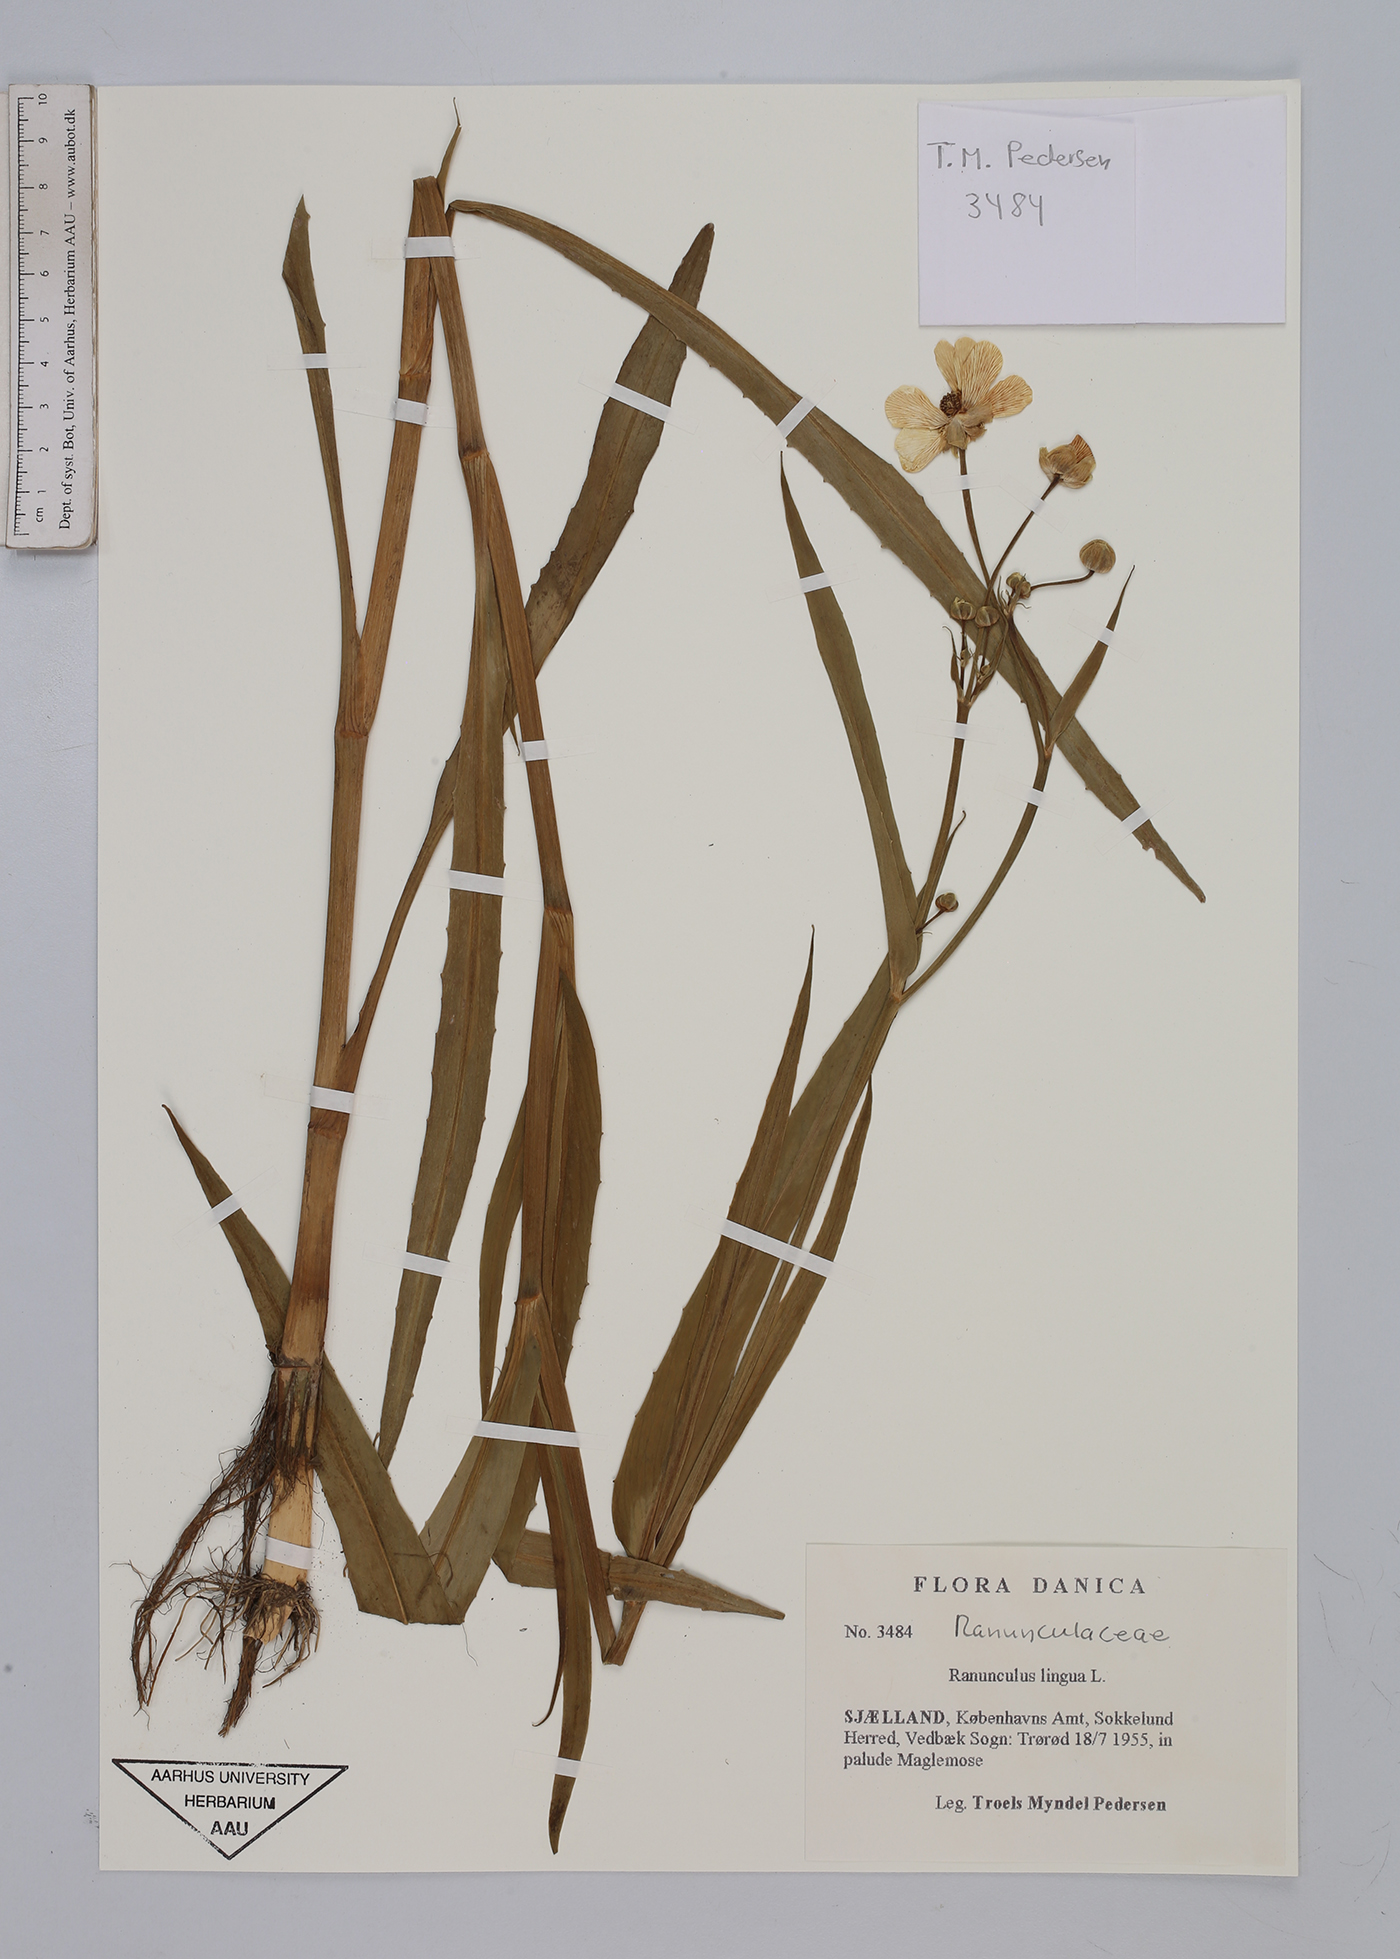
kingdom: Plantae
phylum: Tracheophyta
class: Magnoliopsida
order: Ranunculales
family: Ranunculaceae
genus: Ranunculus
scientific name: Ranunculus lingua
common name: Greater spearwort
